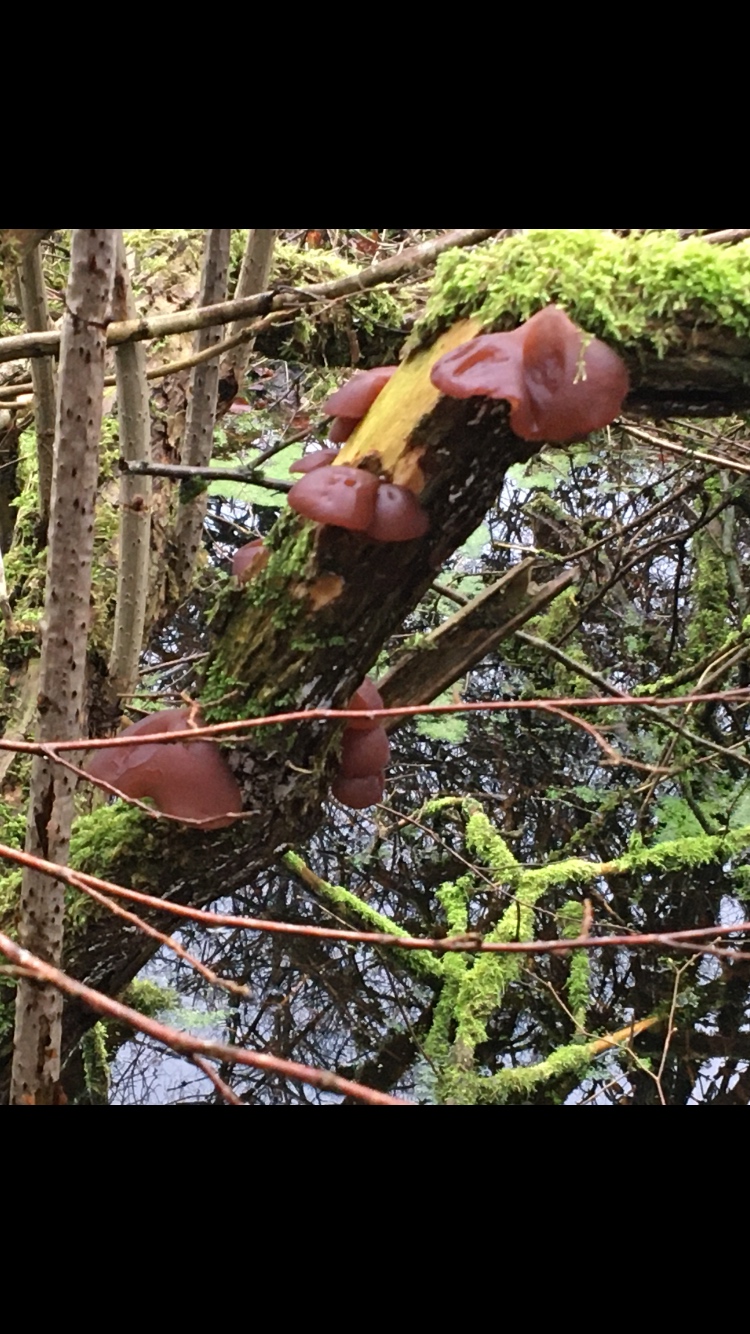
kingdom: Fungi
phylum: Basidiomycota
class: Agaricomycetes
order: Auriculariales
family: Auriculariaceae
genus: Auricularia
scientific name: Auricularia auricula-judae
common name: almindelig judasøre
